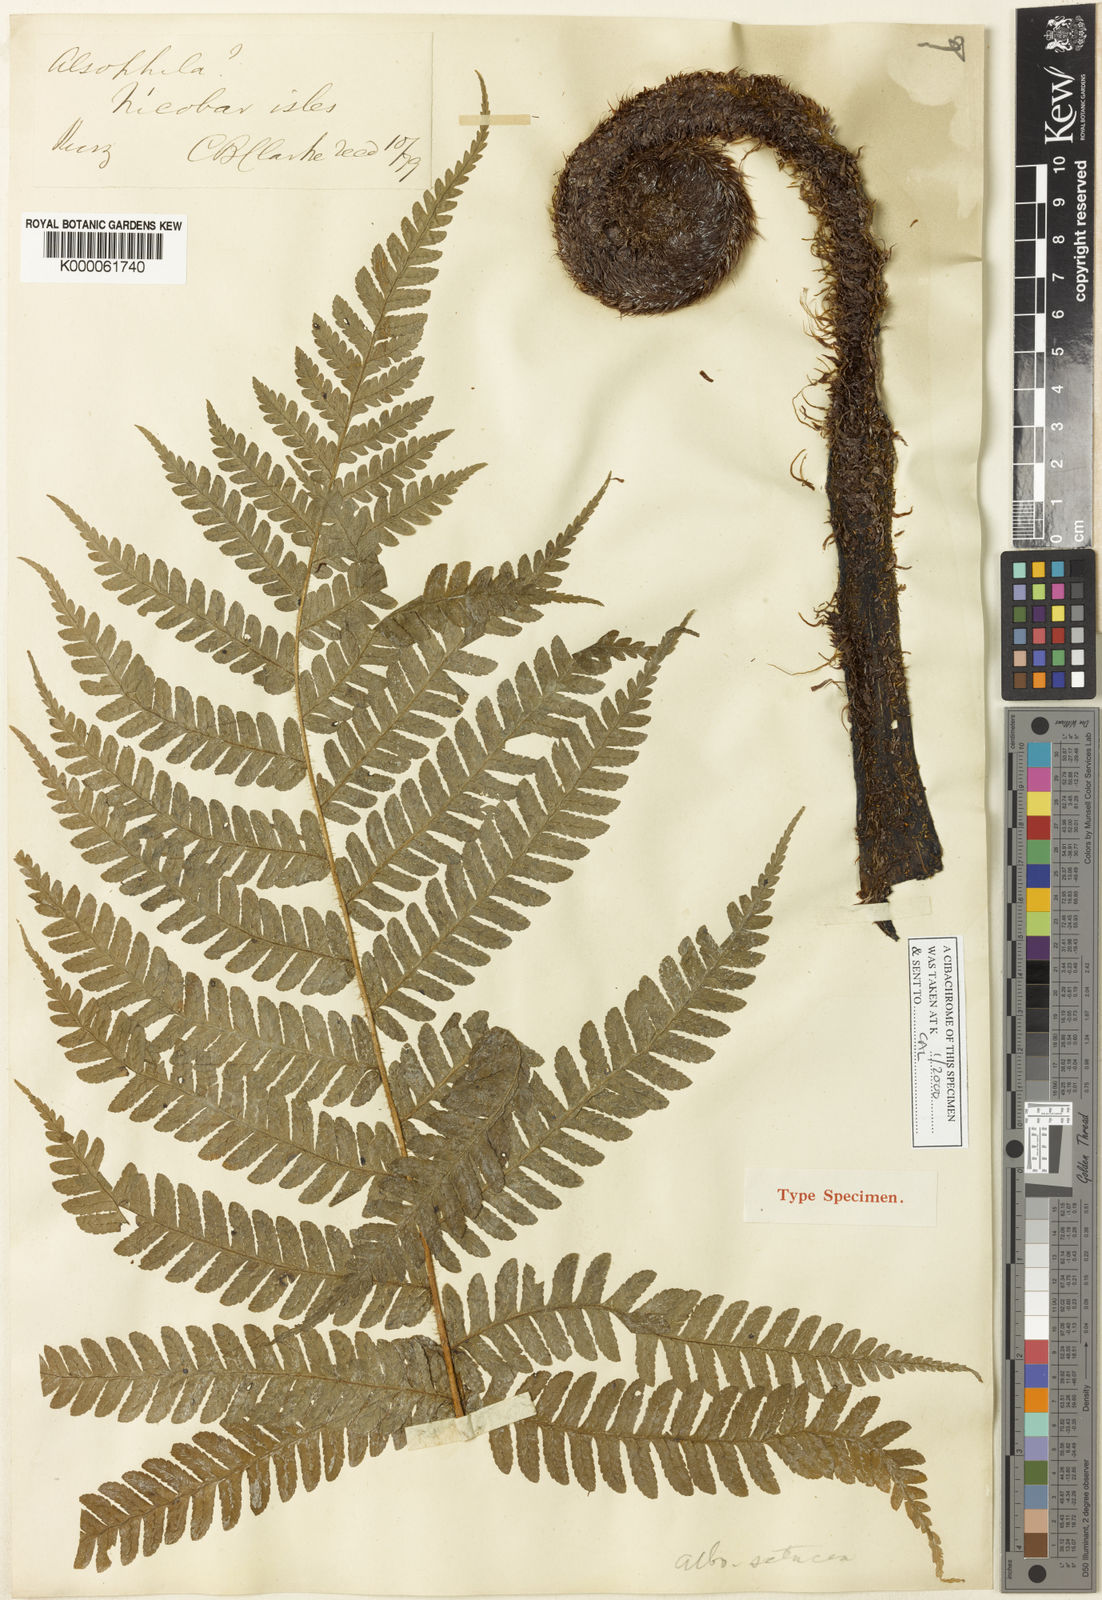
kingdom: Plantae
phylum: Tracheophyta
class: Polypodiopsida
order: Cyatheales
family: Cyatheaceae
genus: Sphaeropteris
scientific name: Sphaeropteris albosetacea
